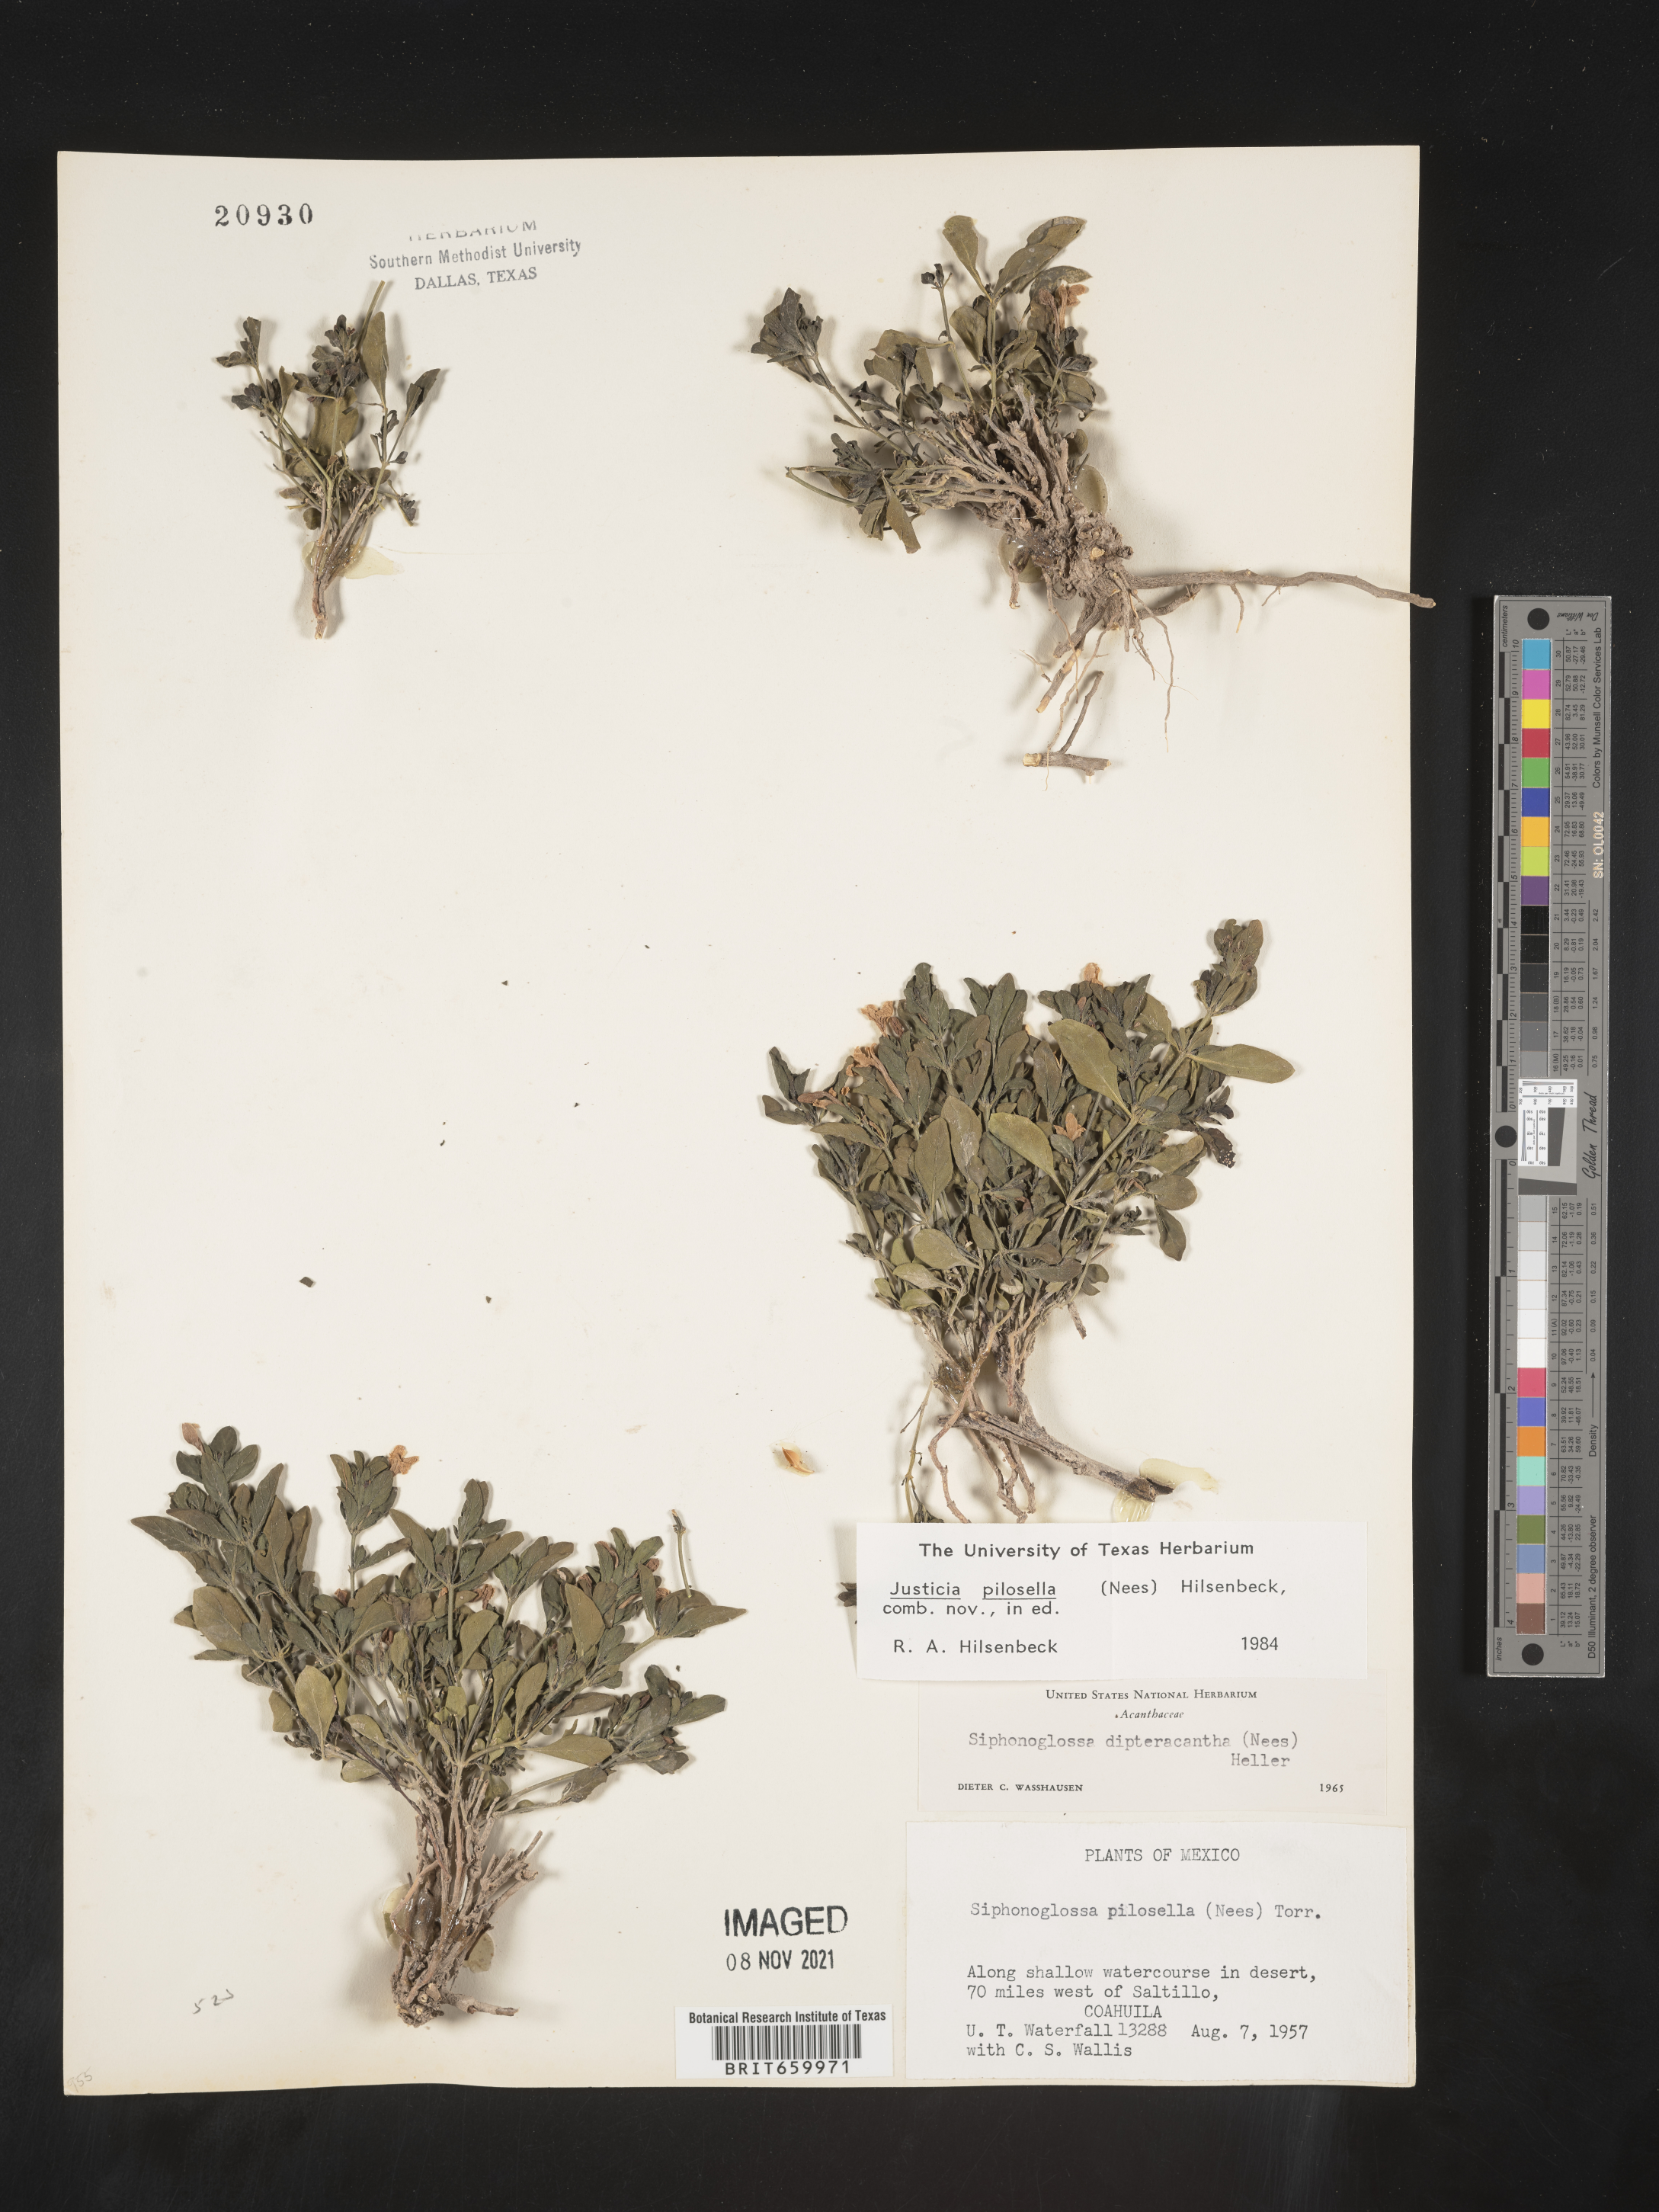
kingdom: Plantae
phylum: Tracheophyta
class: Magnoliopsida
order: Lamiales
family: Acanthaceae
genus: Justicia
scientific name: Justicia
